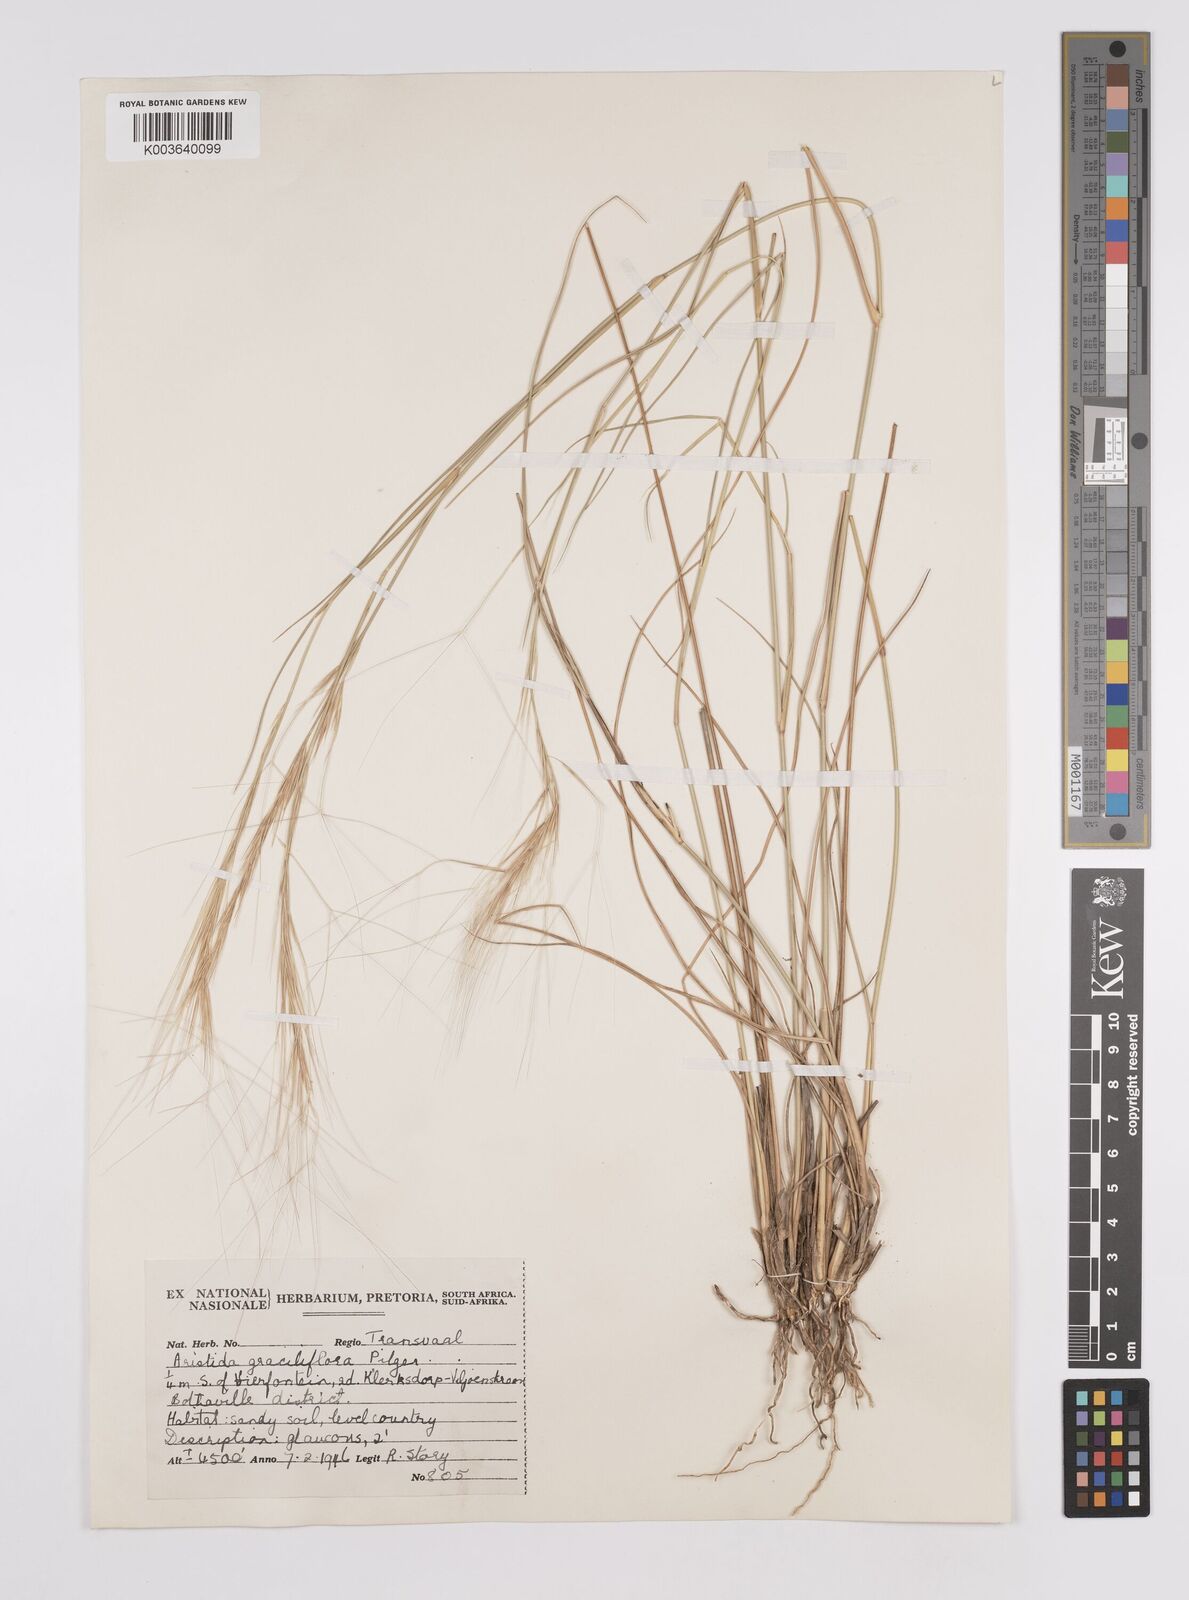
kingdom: Plantae
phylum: Tracheophyta
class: Liliopsida
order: Poales
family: Poaceae
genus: Aristida
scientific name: Aristida stipitata
